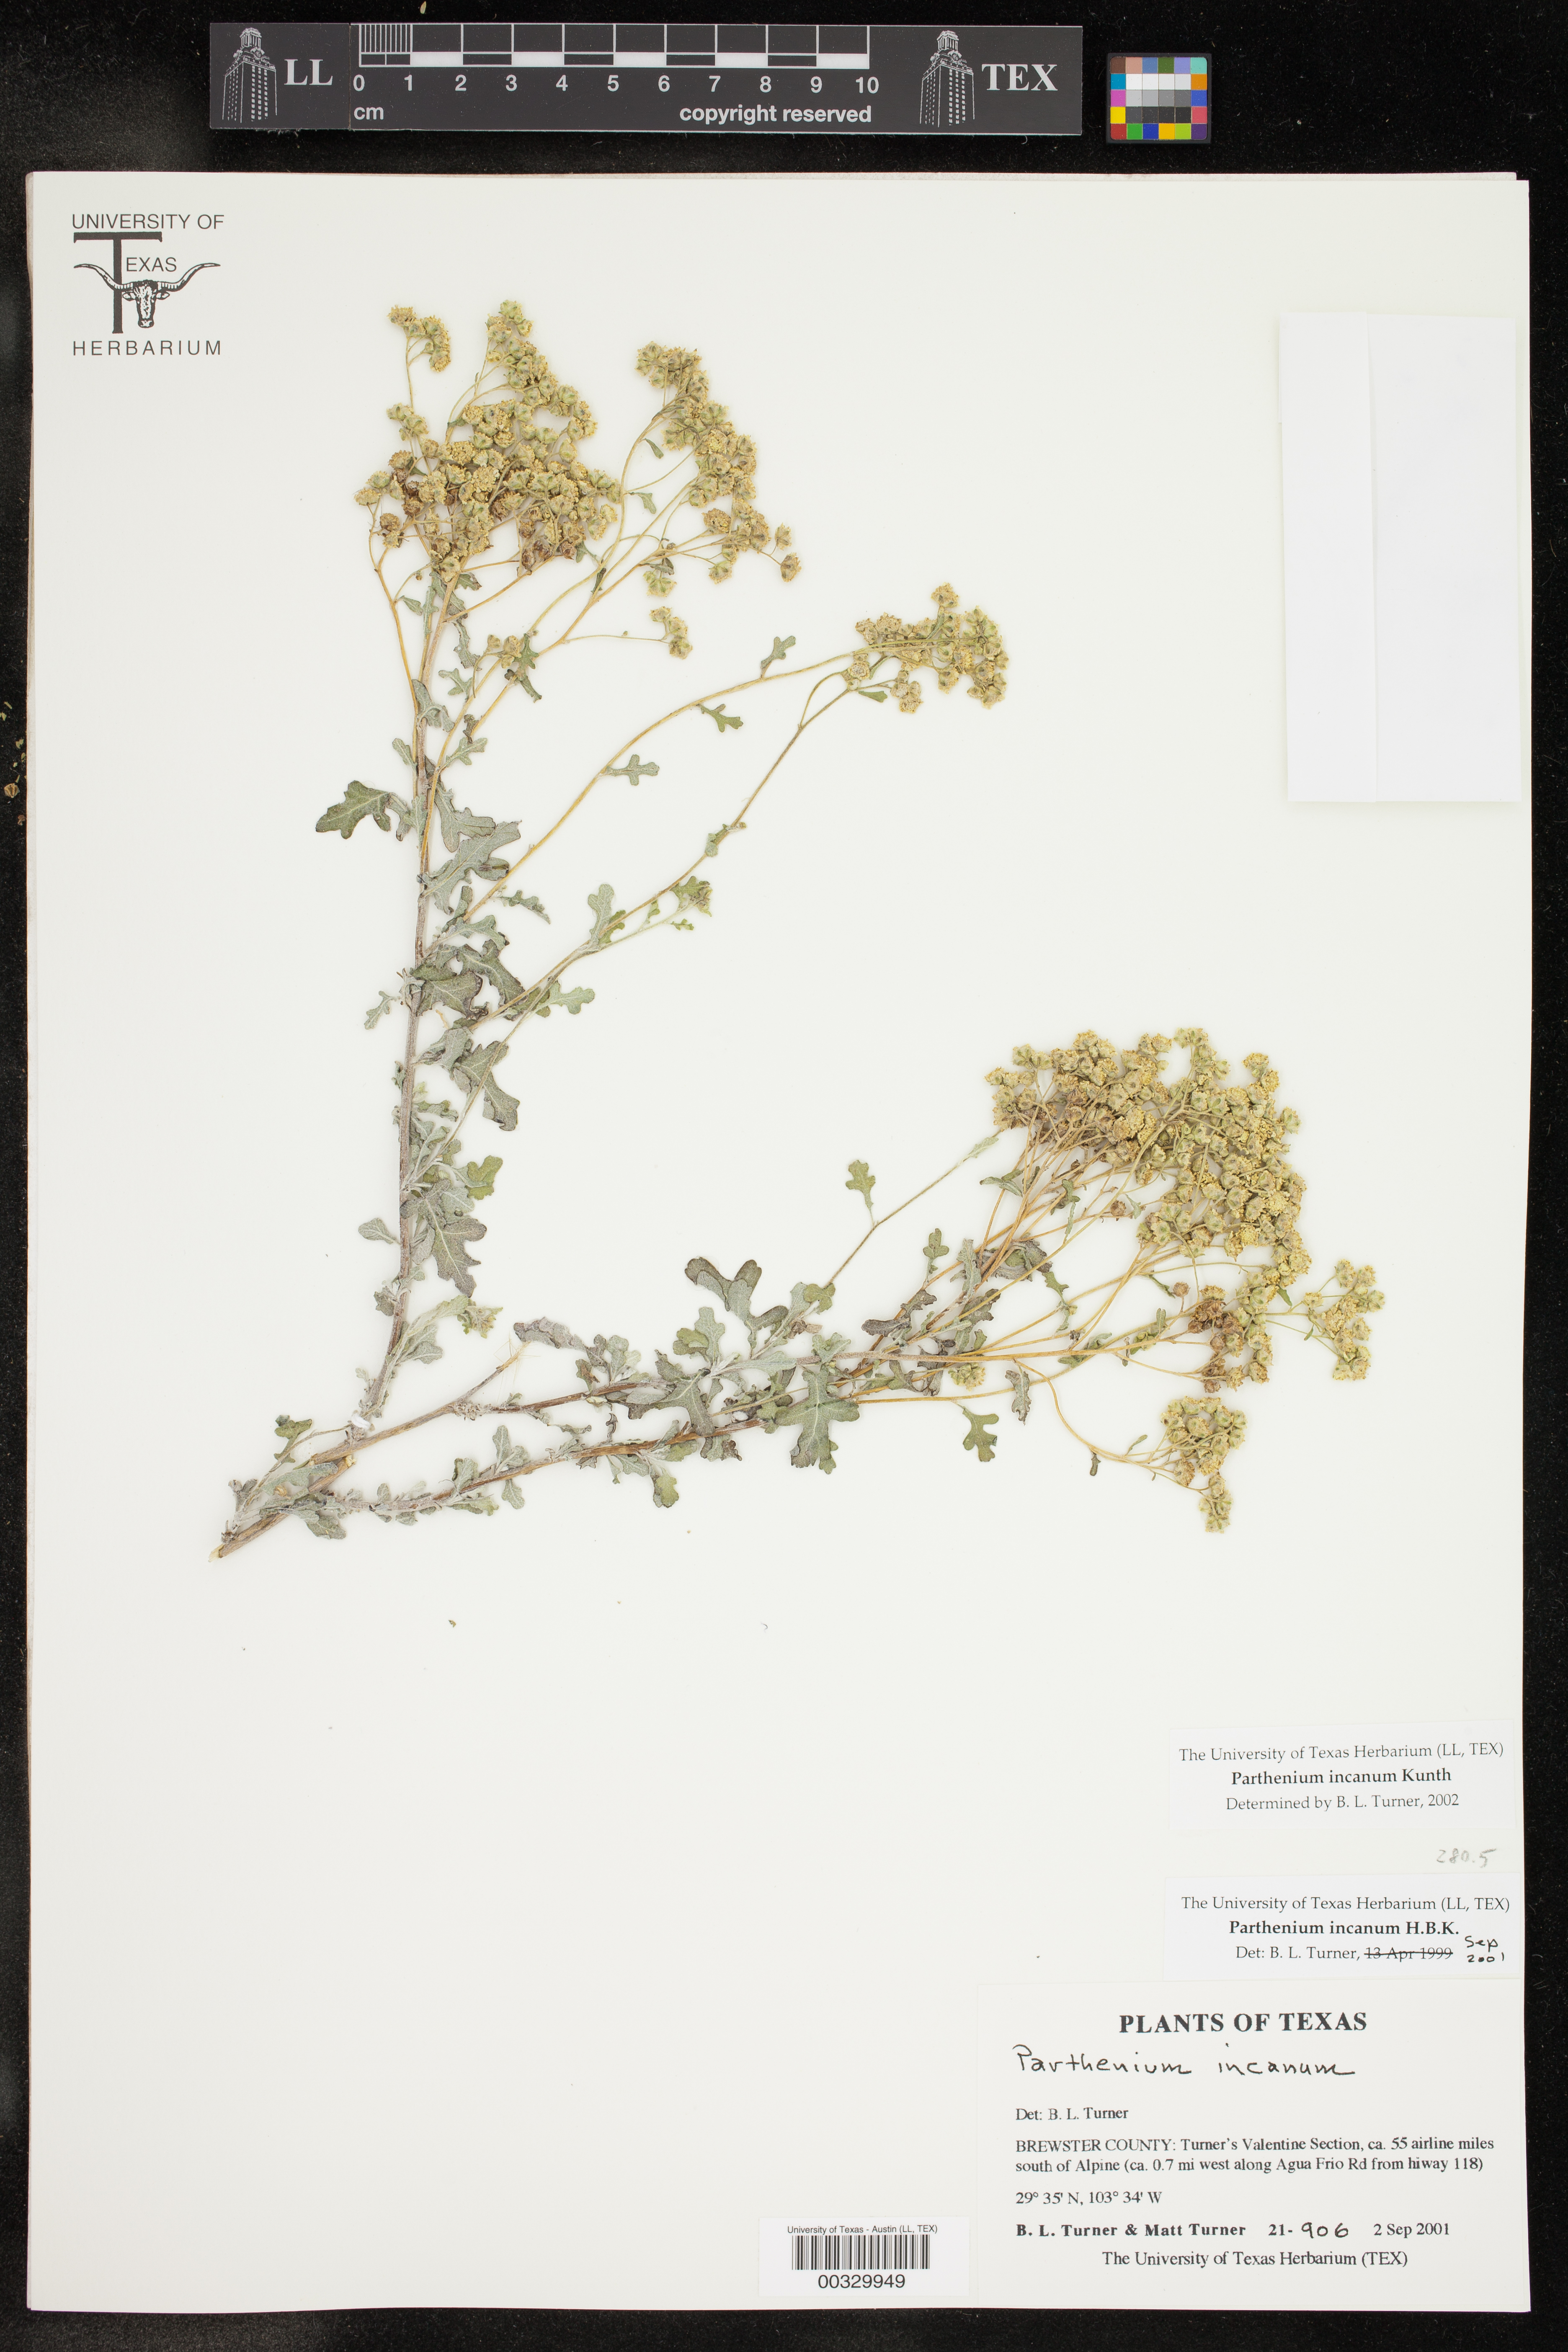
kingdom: Plantae
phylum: Tracheophyta
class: Magnoliopsida
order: Asterales
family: Asteraceae
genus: Parthenium
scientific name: Parthenium incanum
